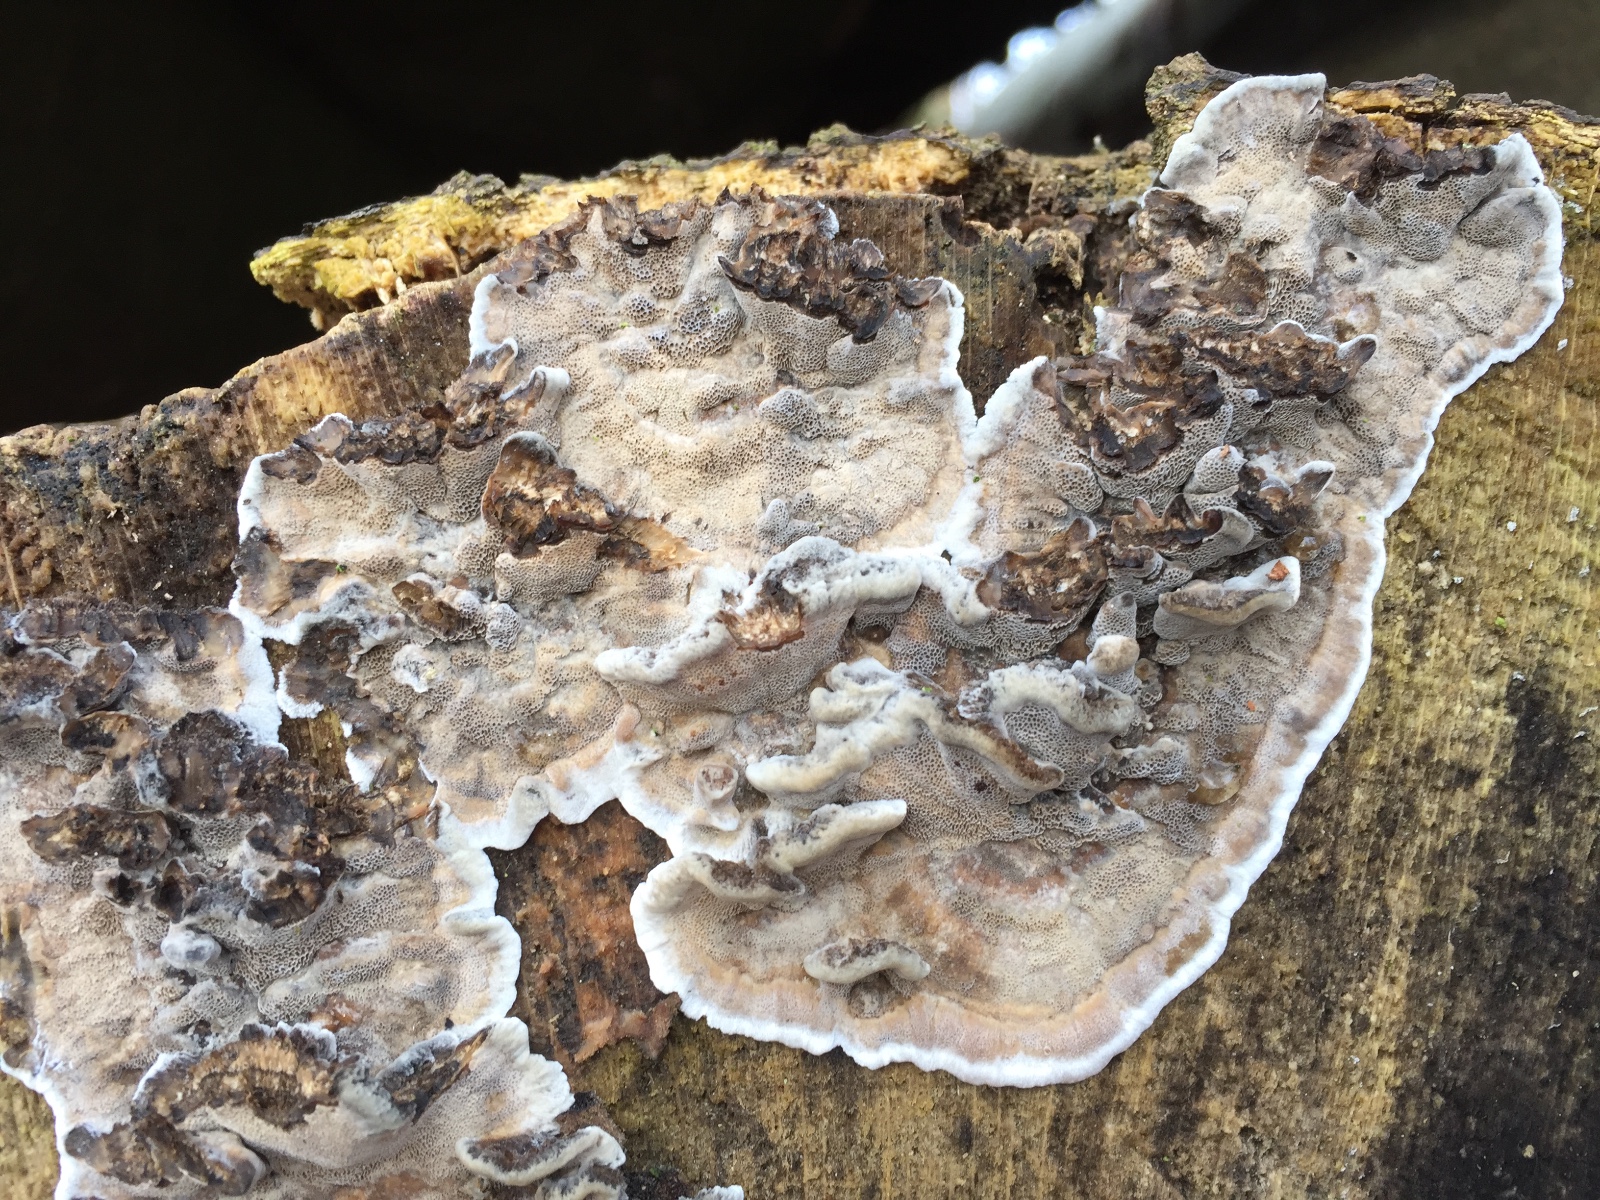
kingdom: Fungi
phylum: Basidiomycota
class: Agaricomycetes
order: Polyporales
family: Phanerochaetaceae
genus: Bjerkandera
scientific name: Bjerkandera adusta
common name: sveden sodporesvamp
